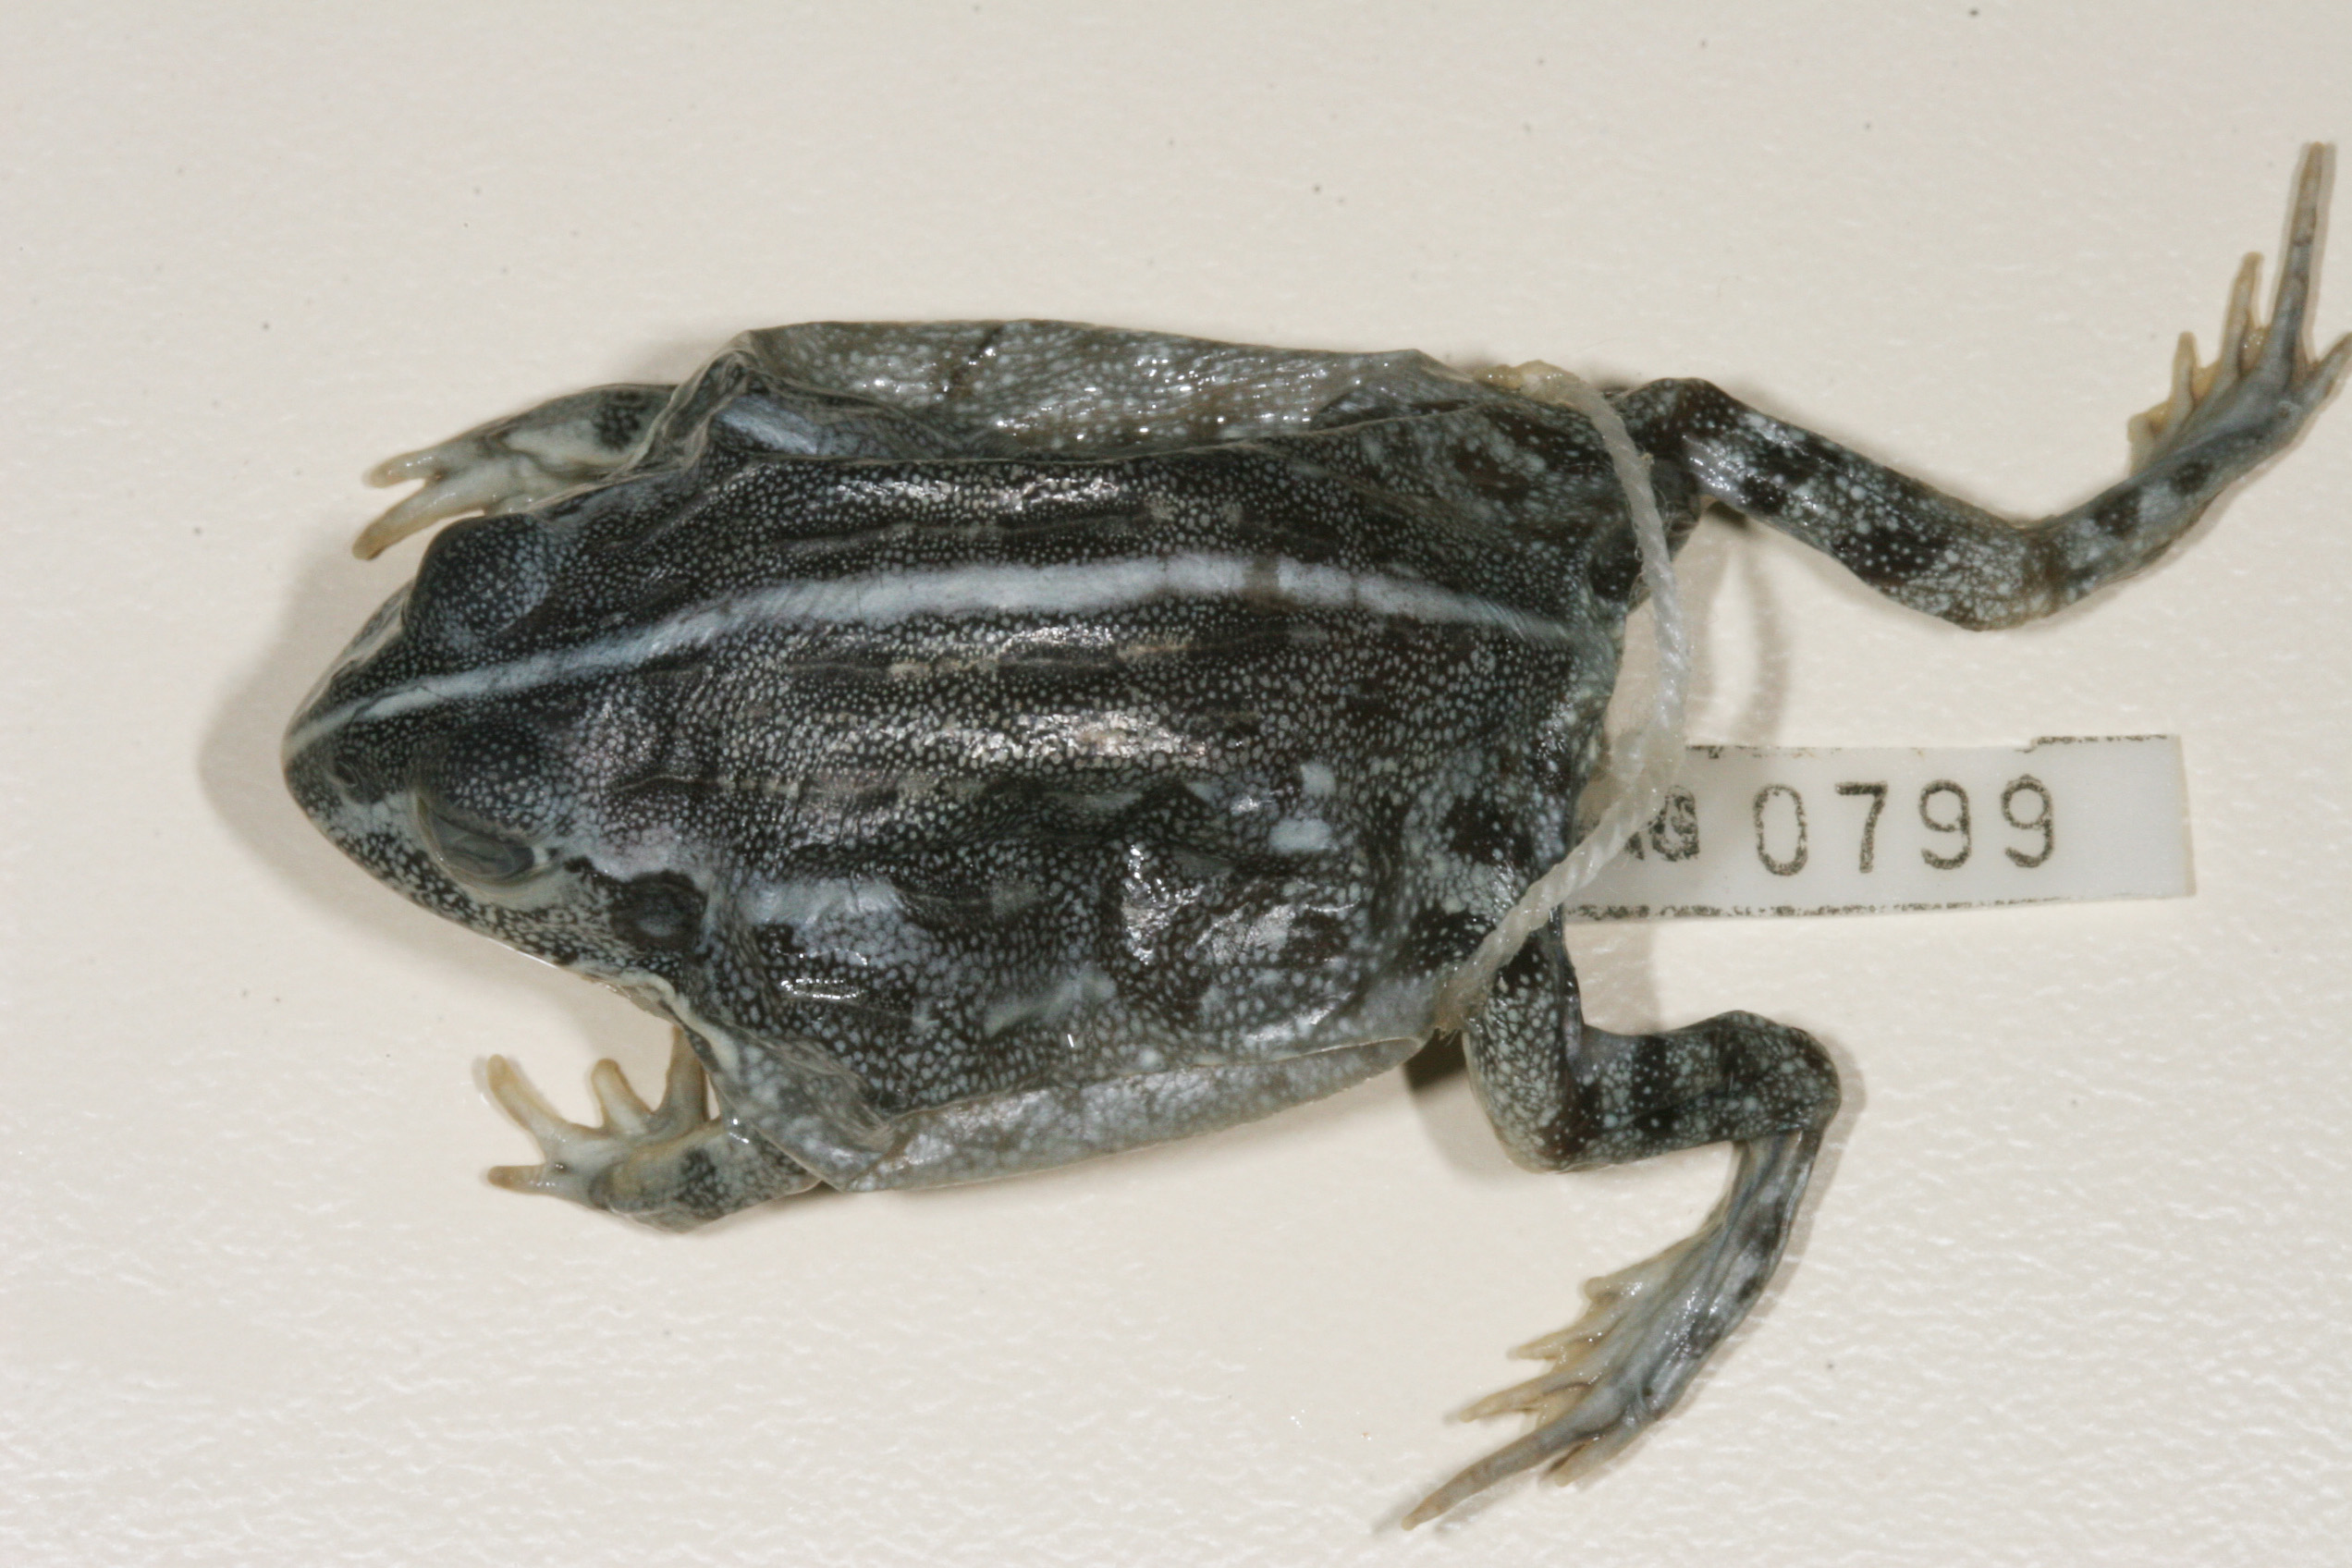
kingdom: Animalia
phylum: Chordata
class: Amphibia
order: Anura
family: Pyxicephalidae
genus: Pyxicephalus
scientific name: Pyxicephalus adspersus
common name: African bullfrog
